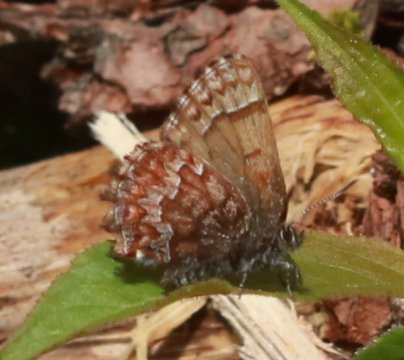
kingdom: Animalia
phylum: Arthropoda
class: Insecta
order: Lepidoptera
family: Lycaenidae
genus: Incisalia
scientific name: Incisalia niphon
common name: Eastern Pine Elfin
